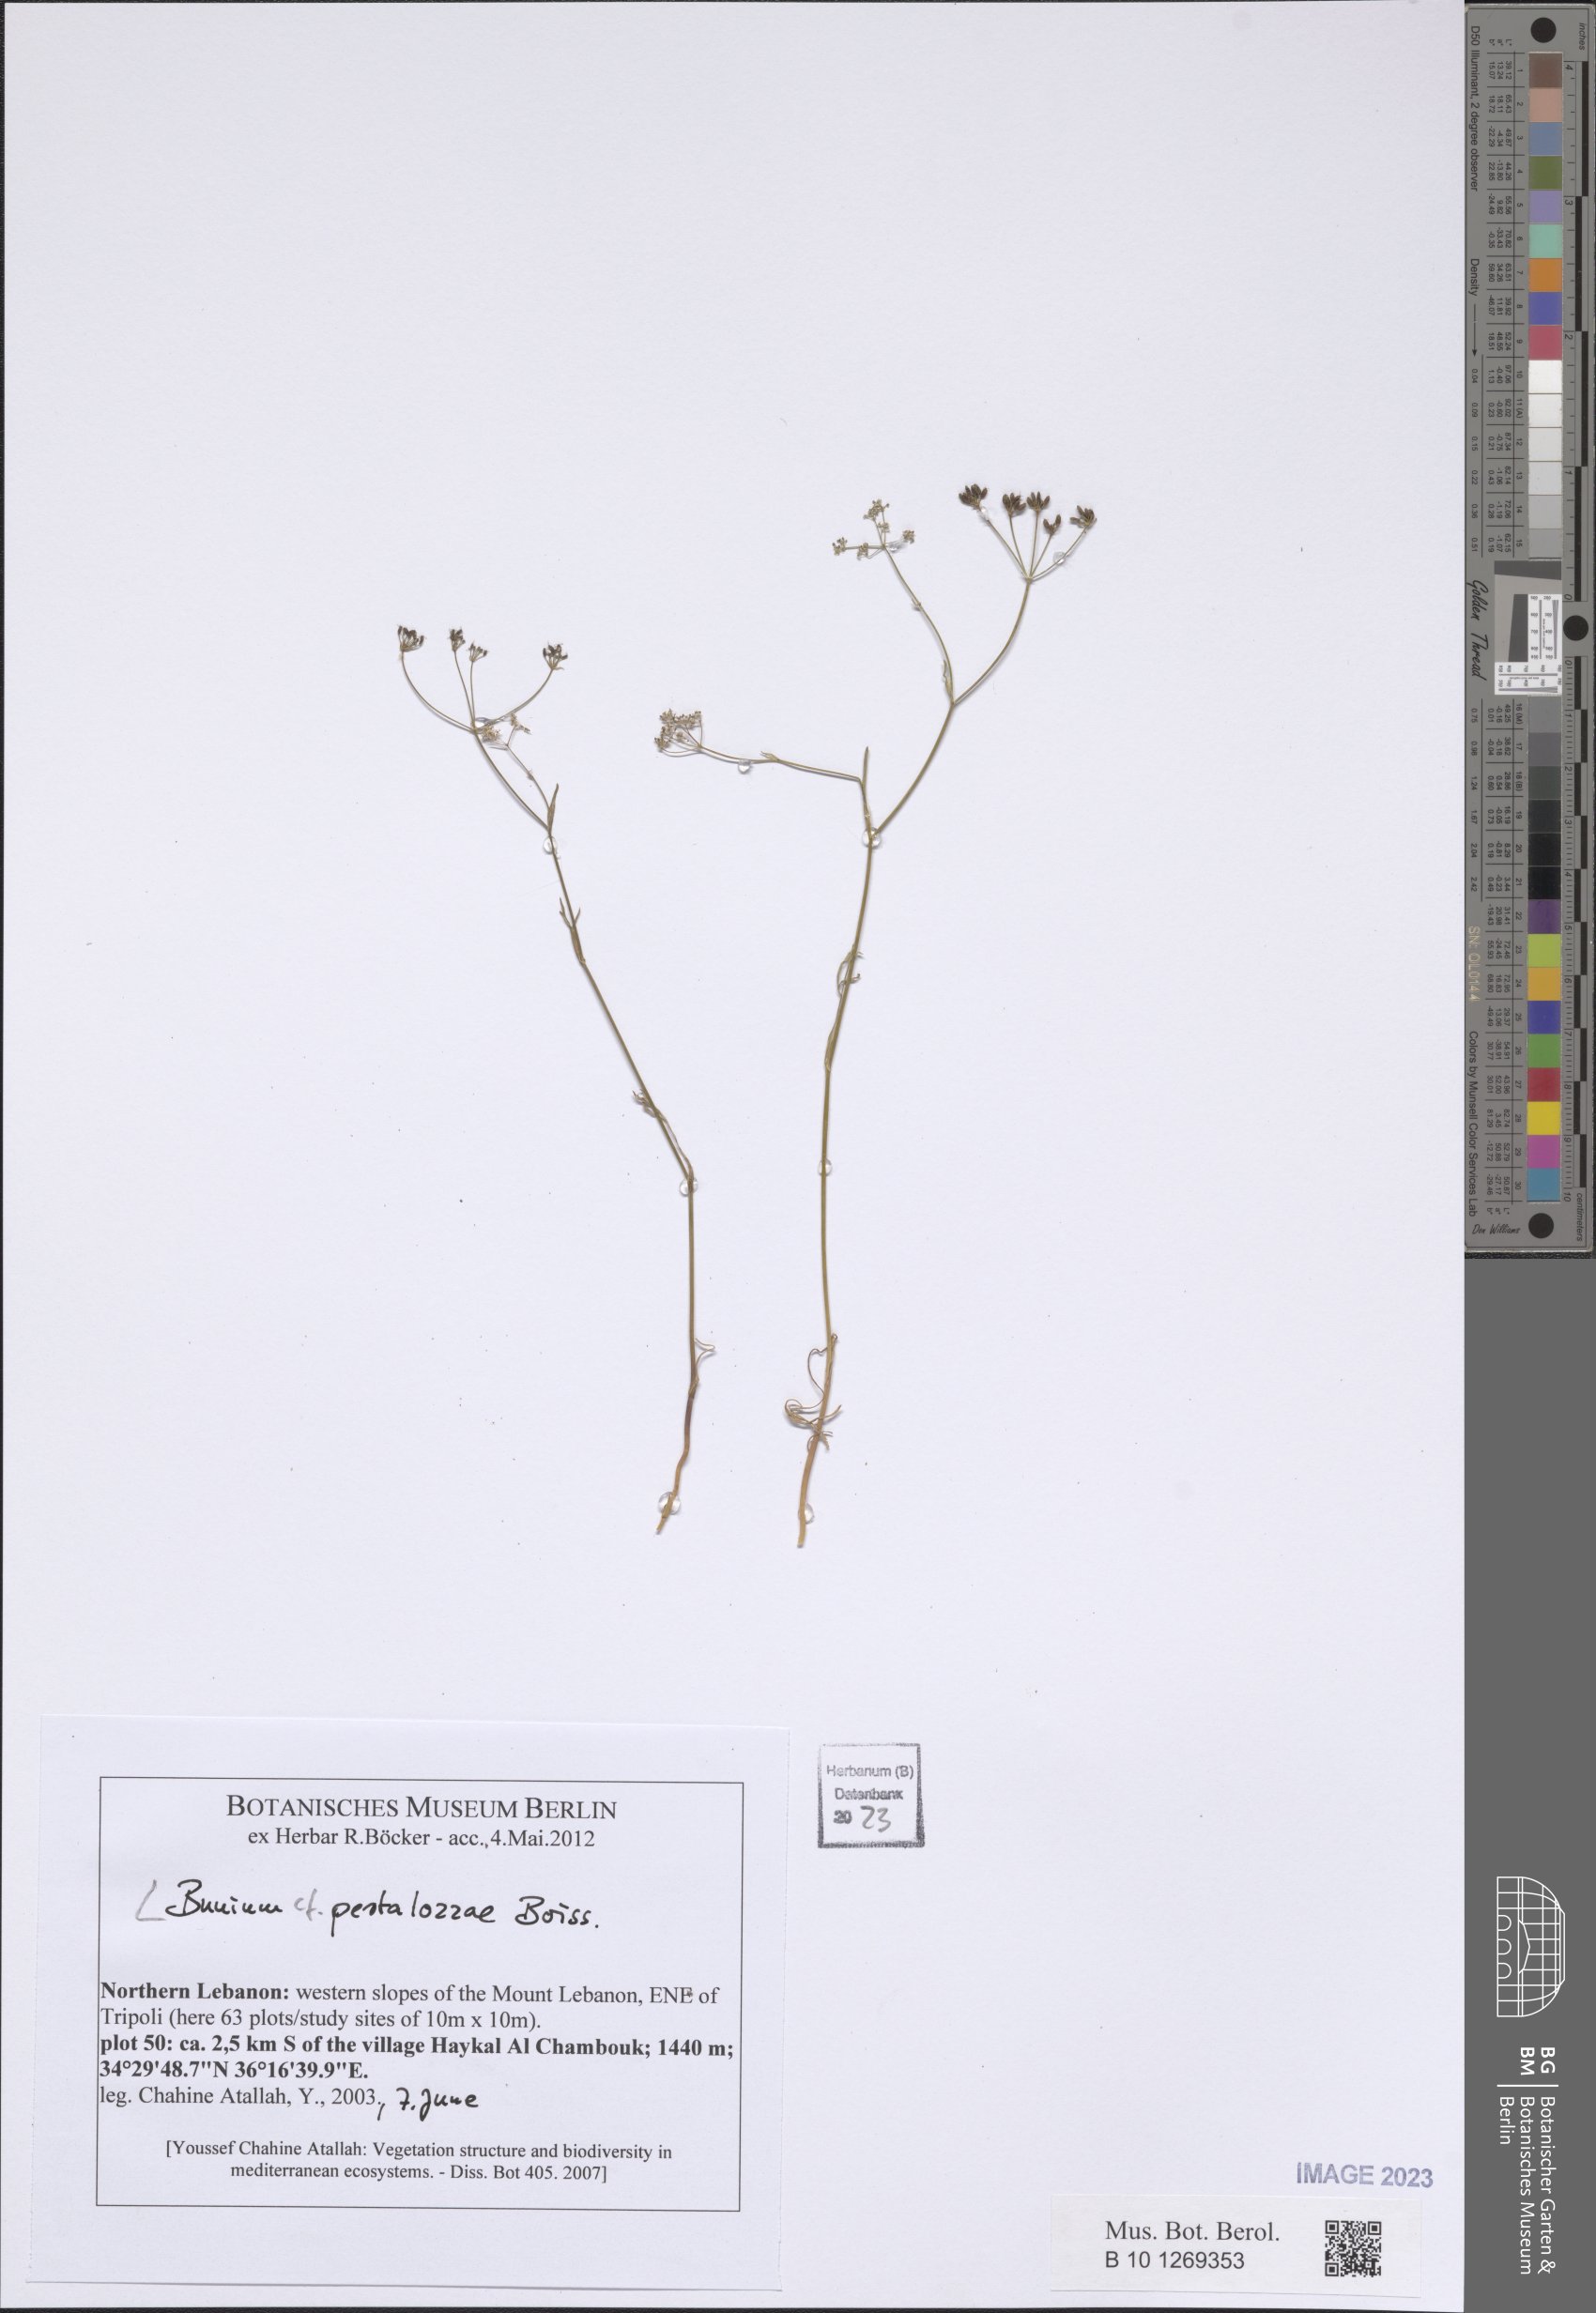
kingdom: Plantae
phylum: Tracheophyta
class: Magnoliopsida
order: Apiales
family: Apiaceae
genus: Bunium
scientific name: Bunium pestalozzae
